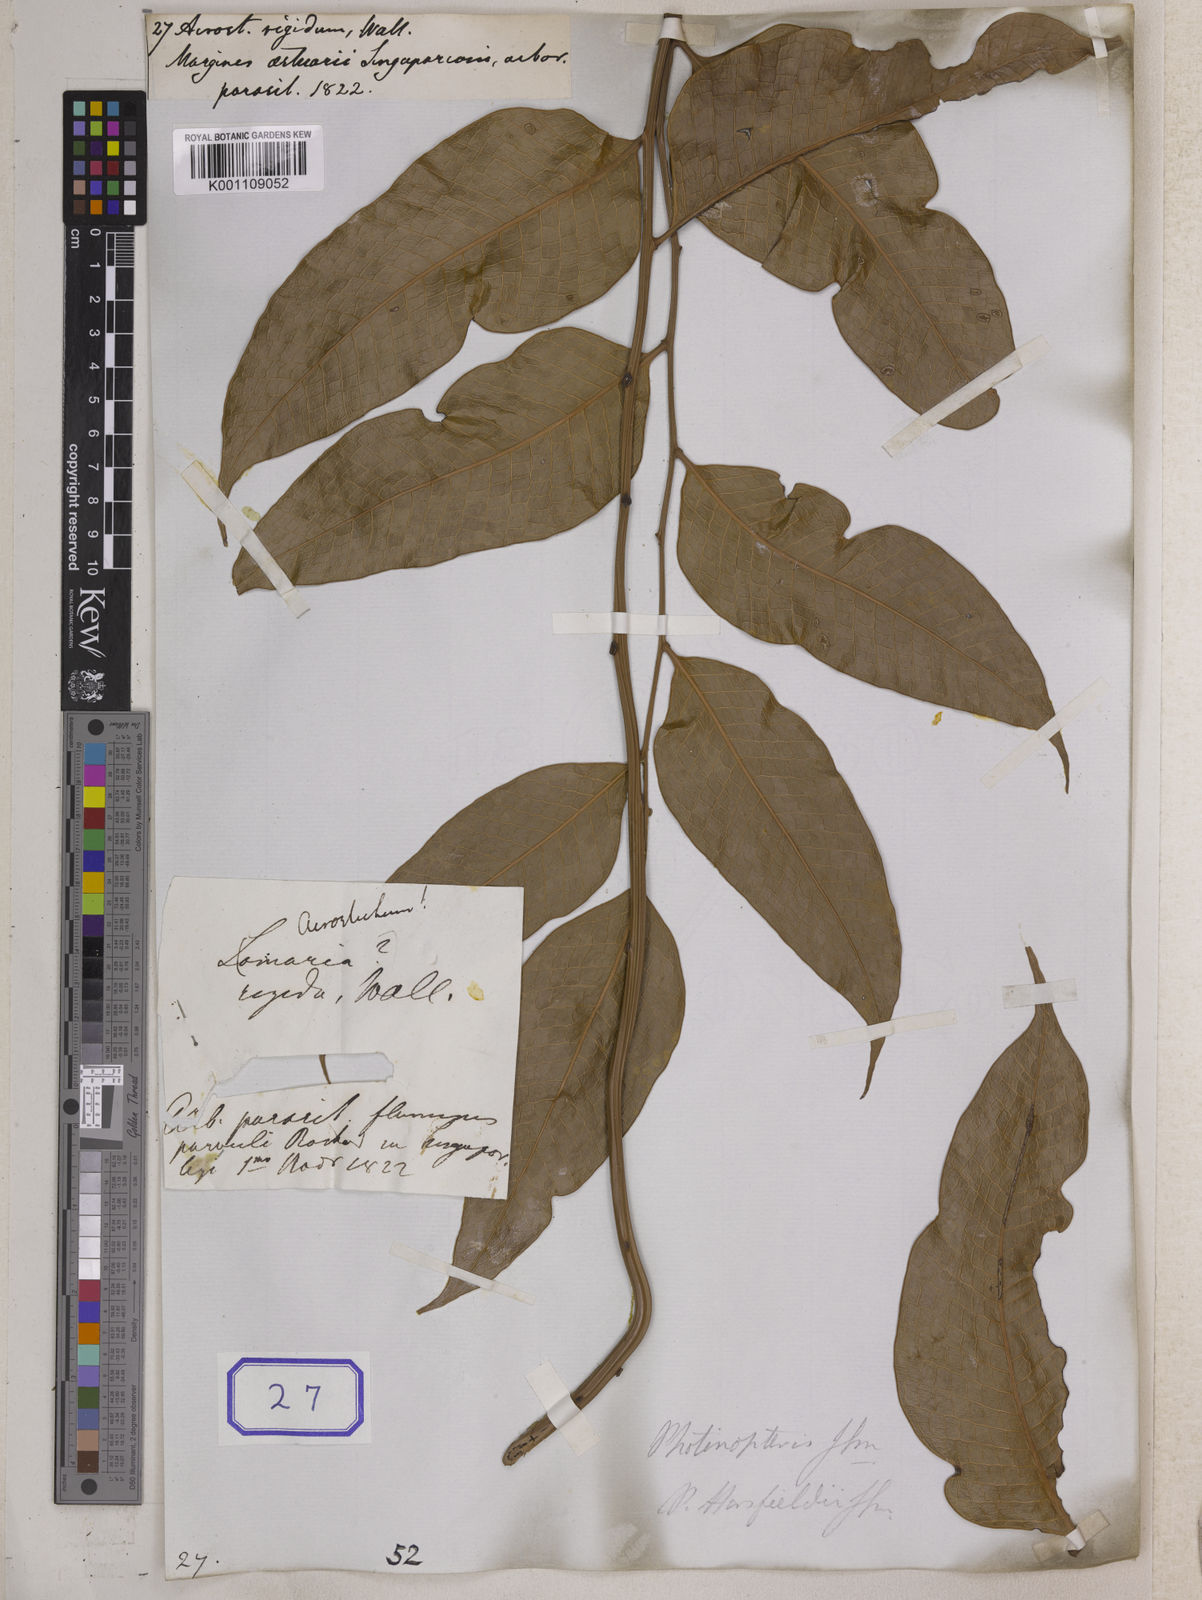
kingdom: Plantae
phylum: Tracheophyta
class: Polypodiopsida
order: Polypodiales
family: Polypodiaceae
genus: Drynaria
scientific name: Drynaria speciosa
